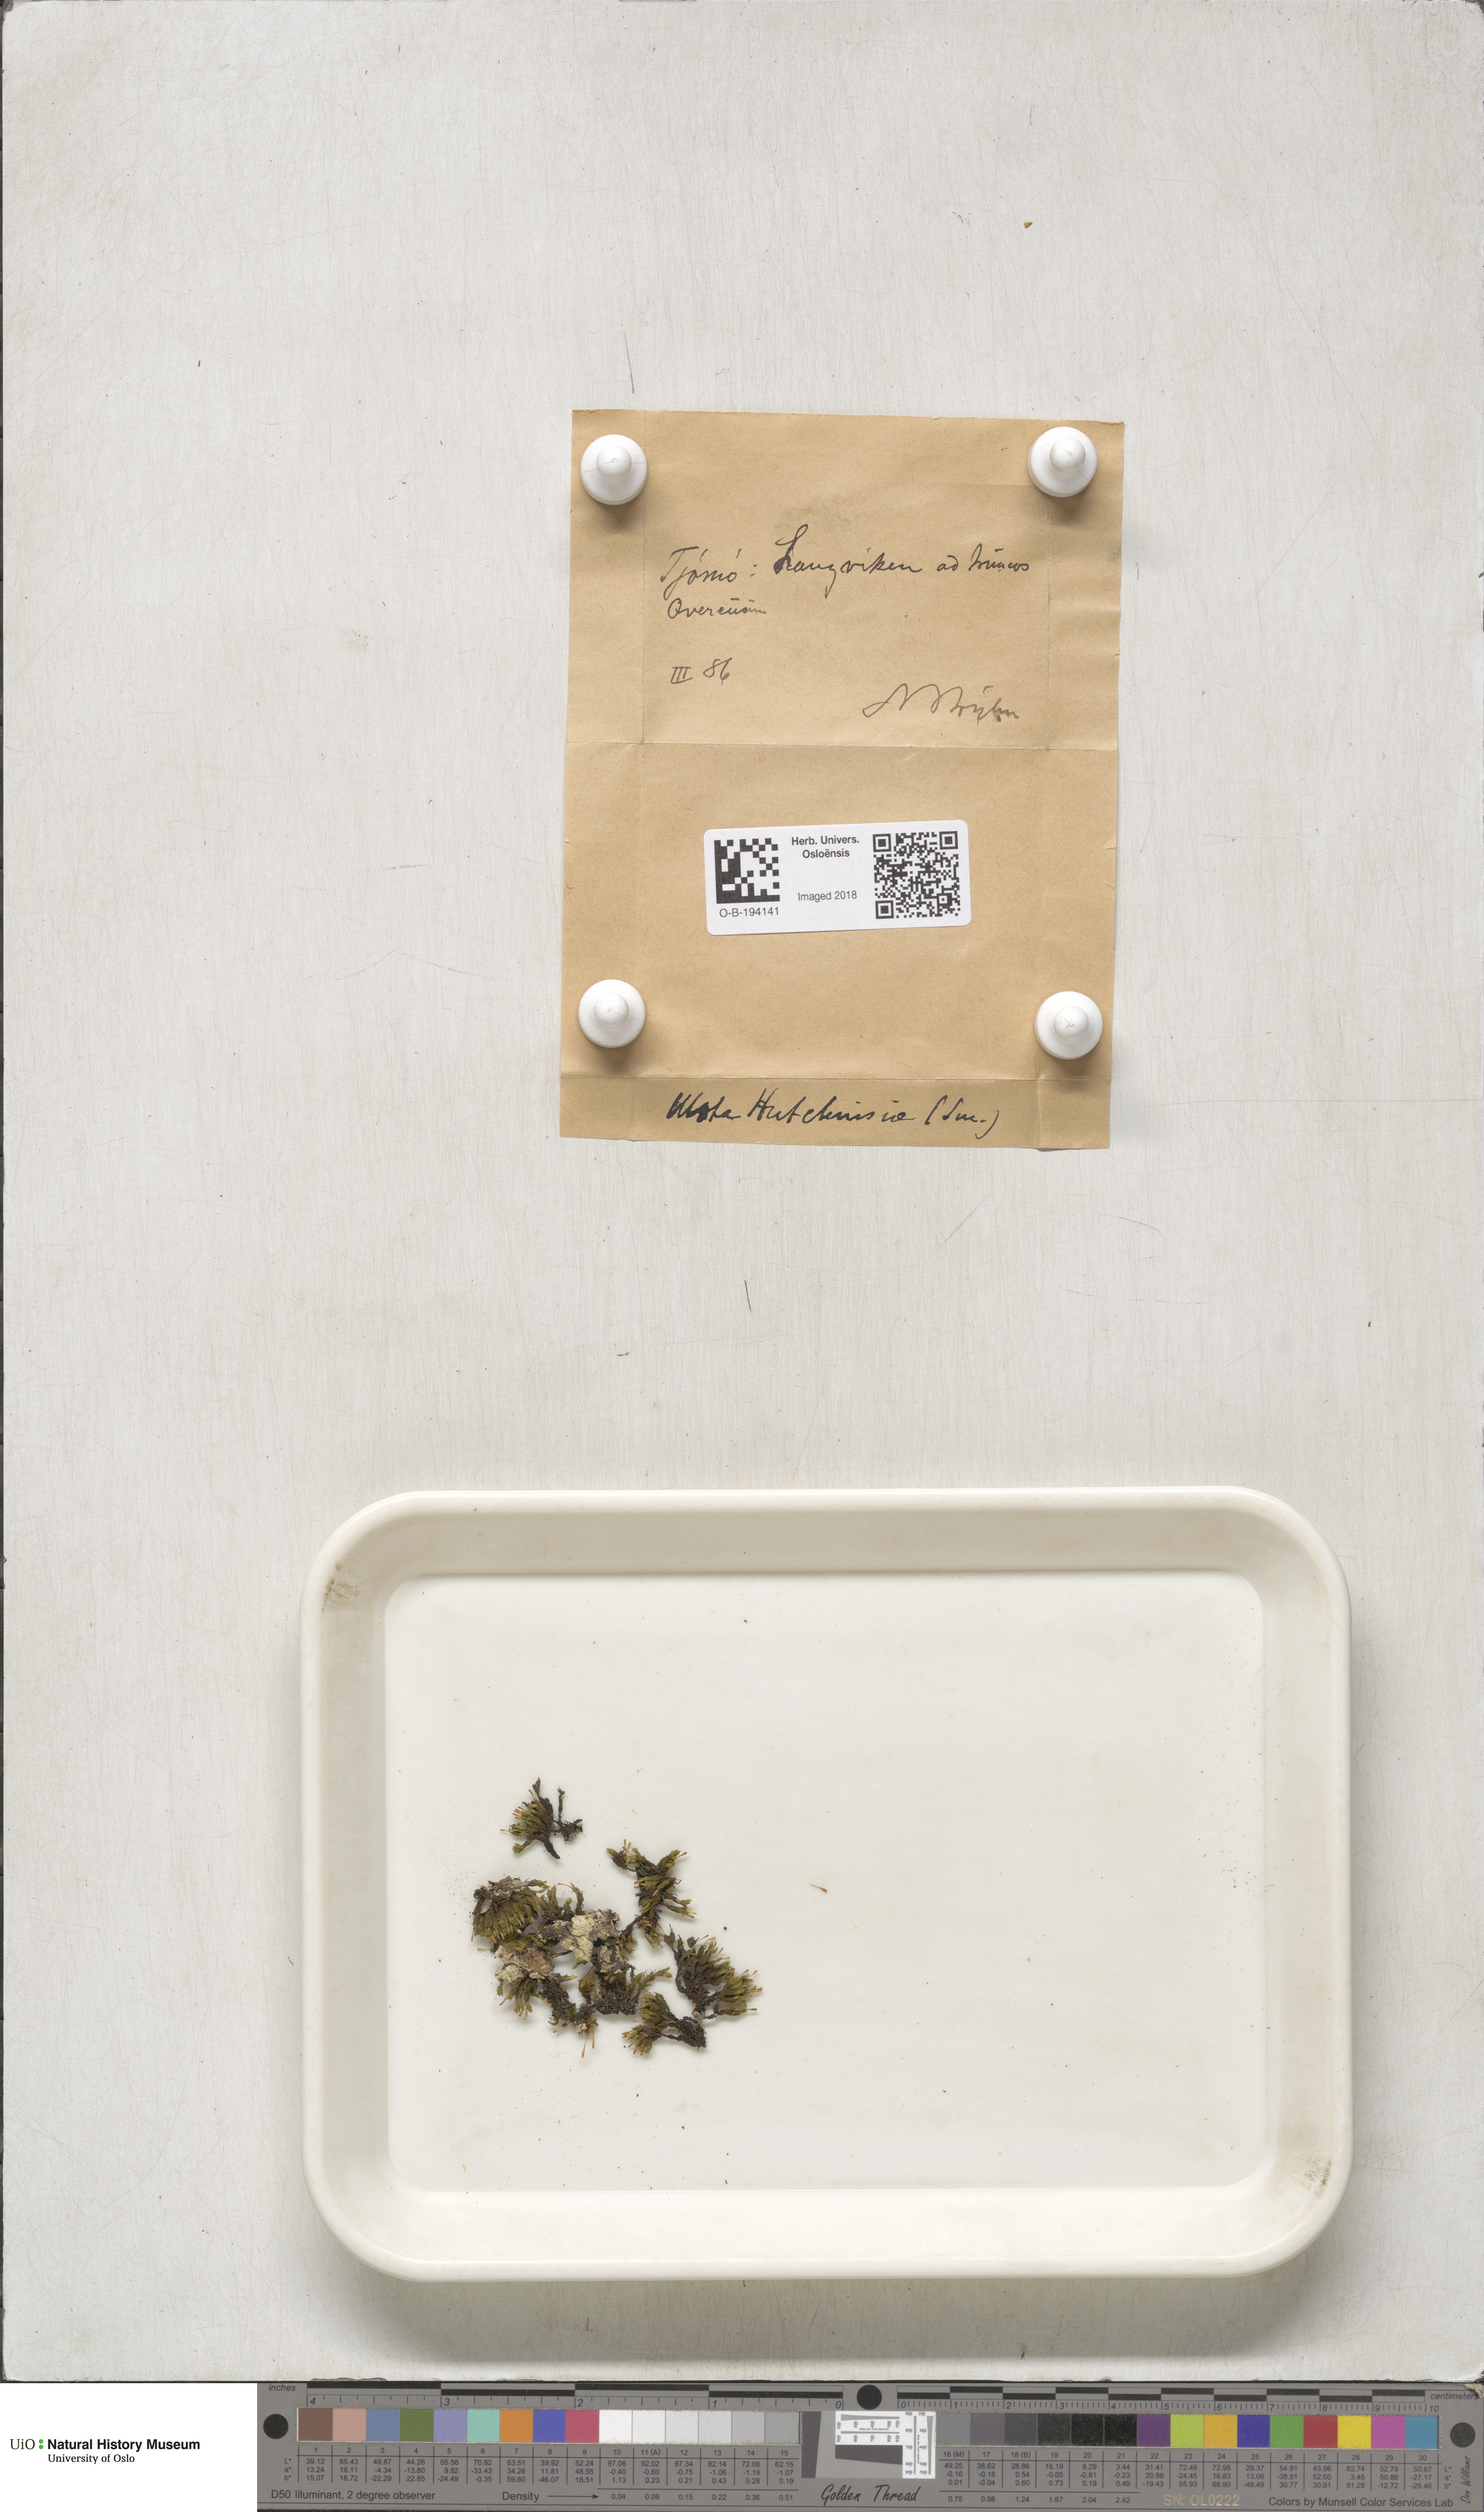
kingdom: Plantae
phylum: Bryophyta
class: Bryopsida
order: Orthotrichales
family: Orthotrichaceae
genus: Ulota
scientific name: Ulota hutchinsiae
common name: Hutchins' pincushion
